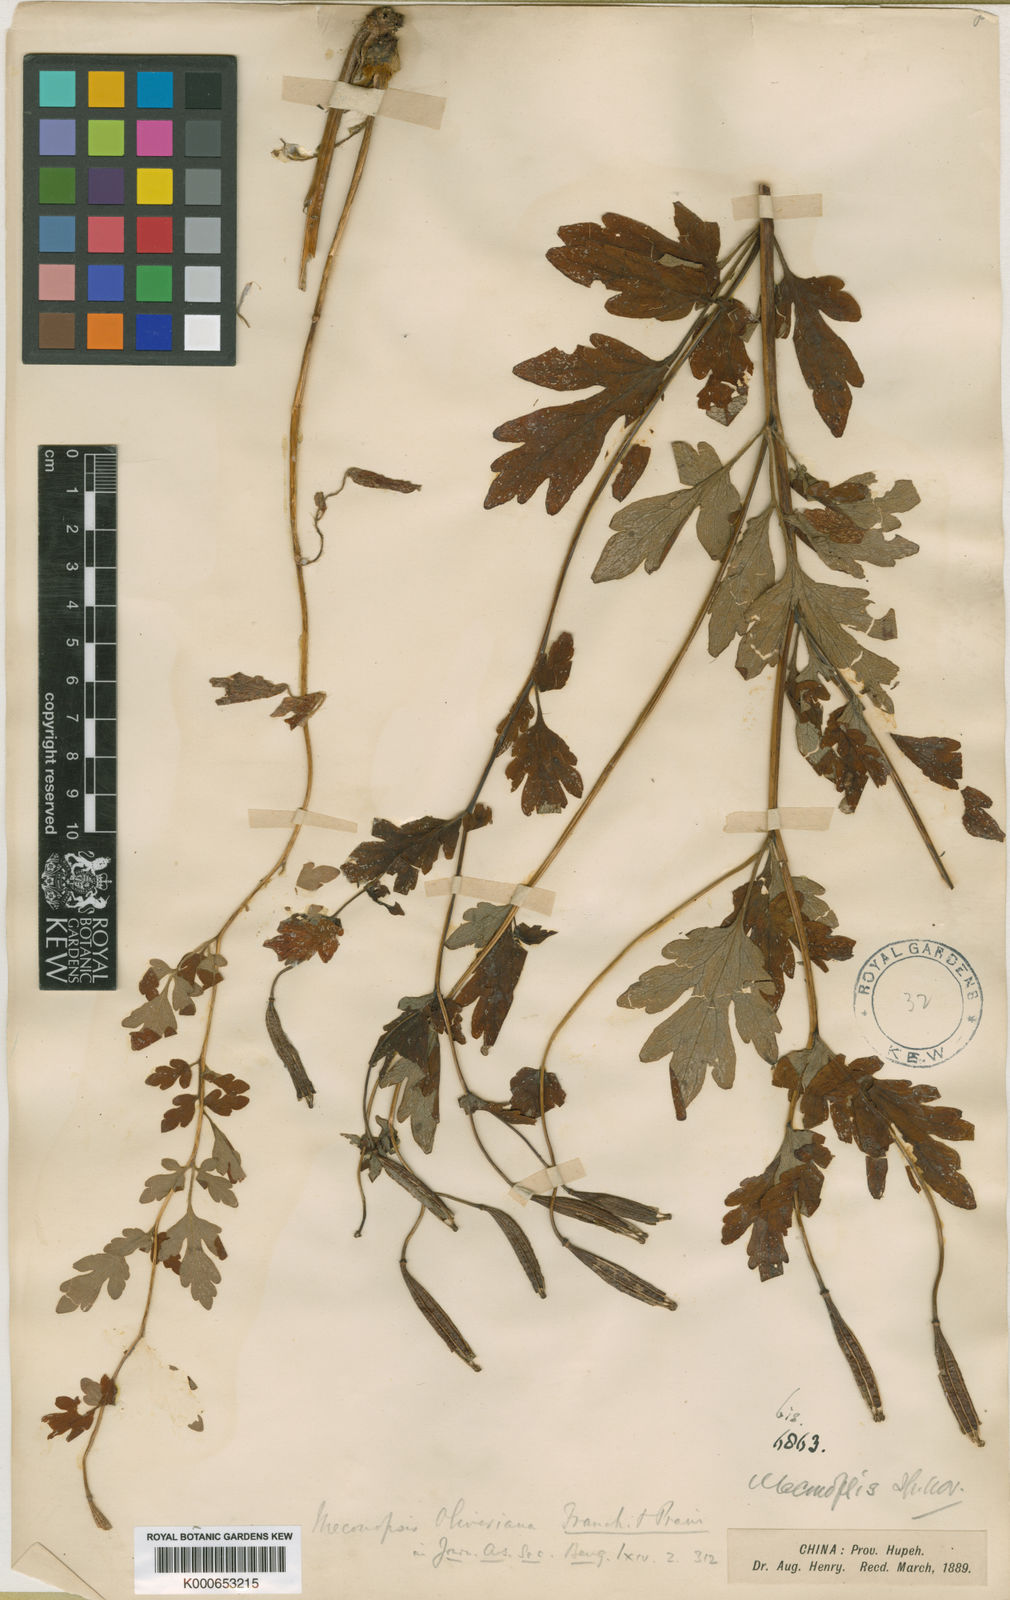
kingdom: Plantae
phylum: Tracheophyta
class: Magnoliopsida
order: Ranunculales
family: Papaveraceae
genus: Cathcartia
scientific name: Cathcartia oliveriana
